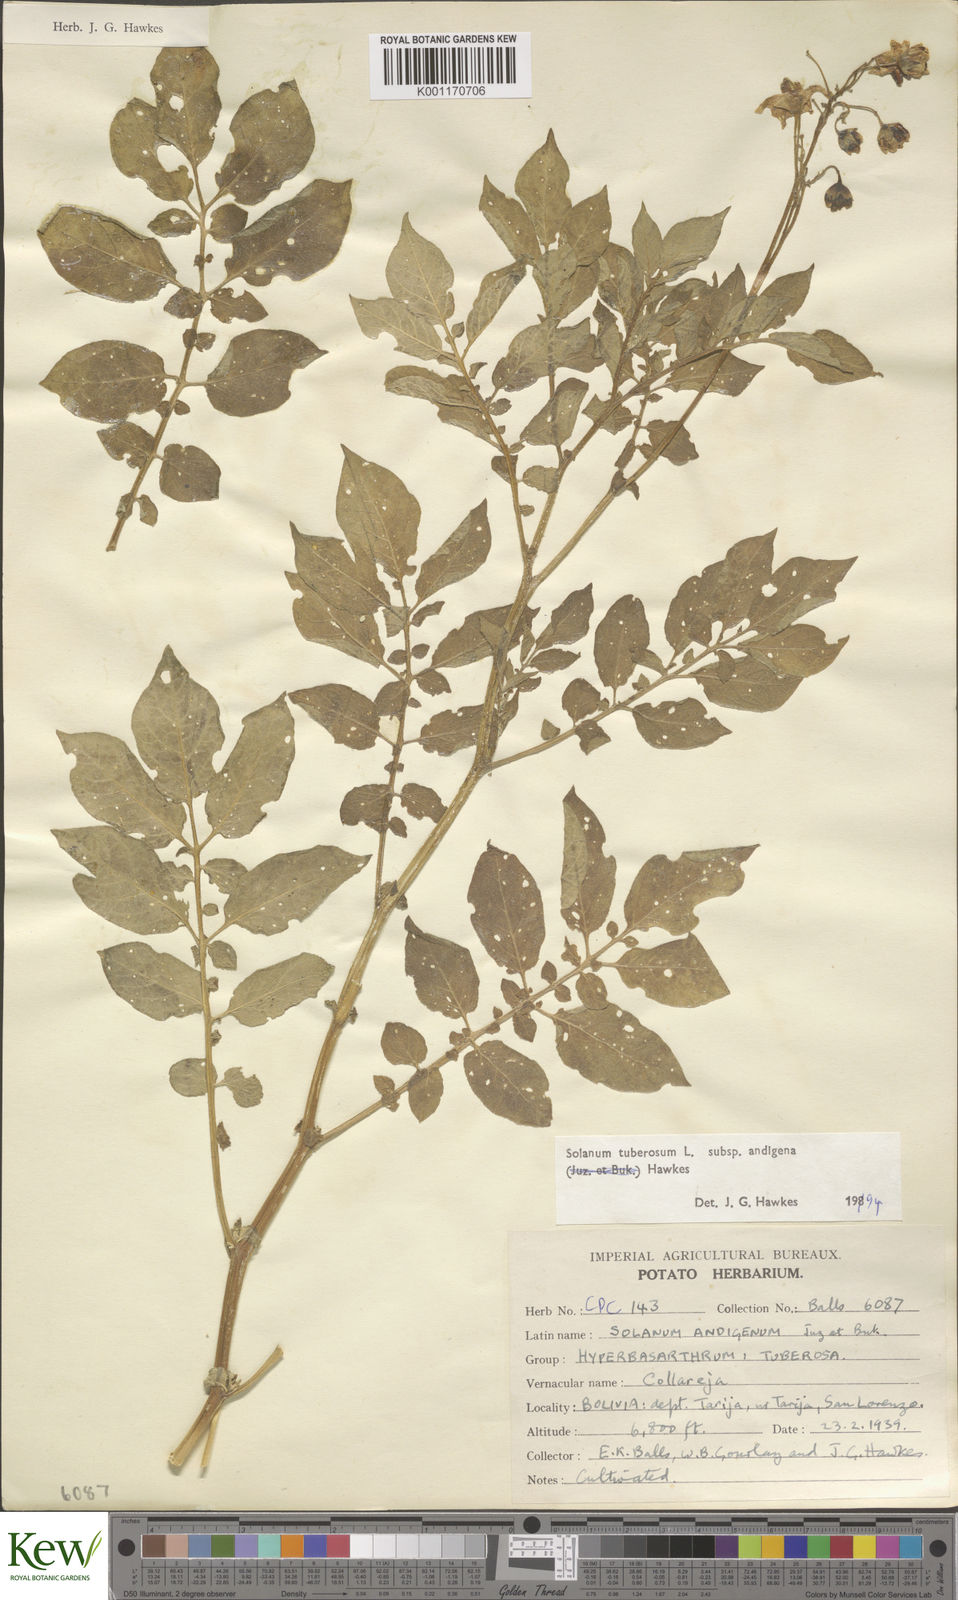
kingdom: Plantae
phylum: Tracheophyta
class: Magnoliopsida
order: Solanales
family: Solanaceae
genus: Solanum
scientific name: Solanum tuberosum
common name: Potato
